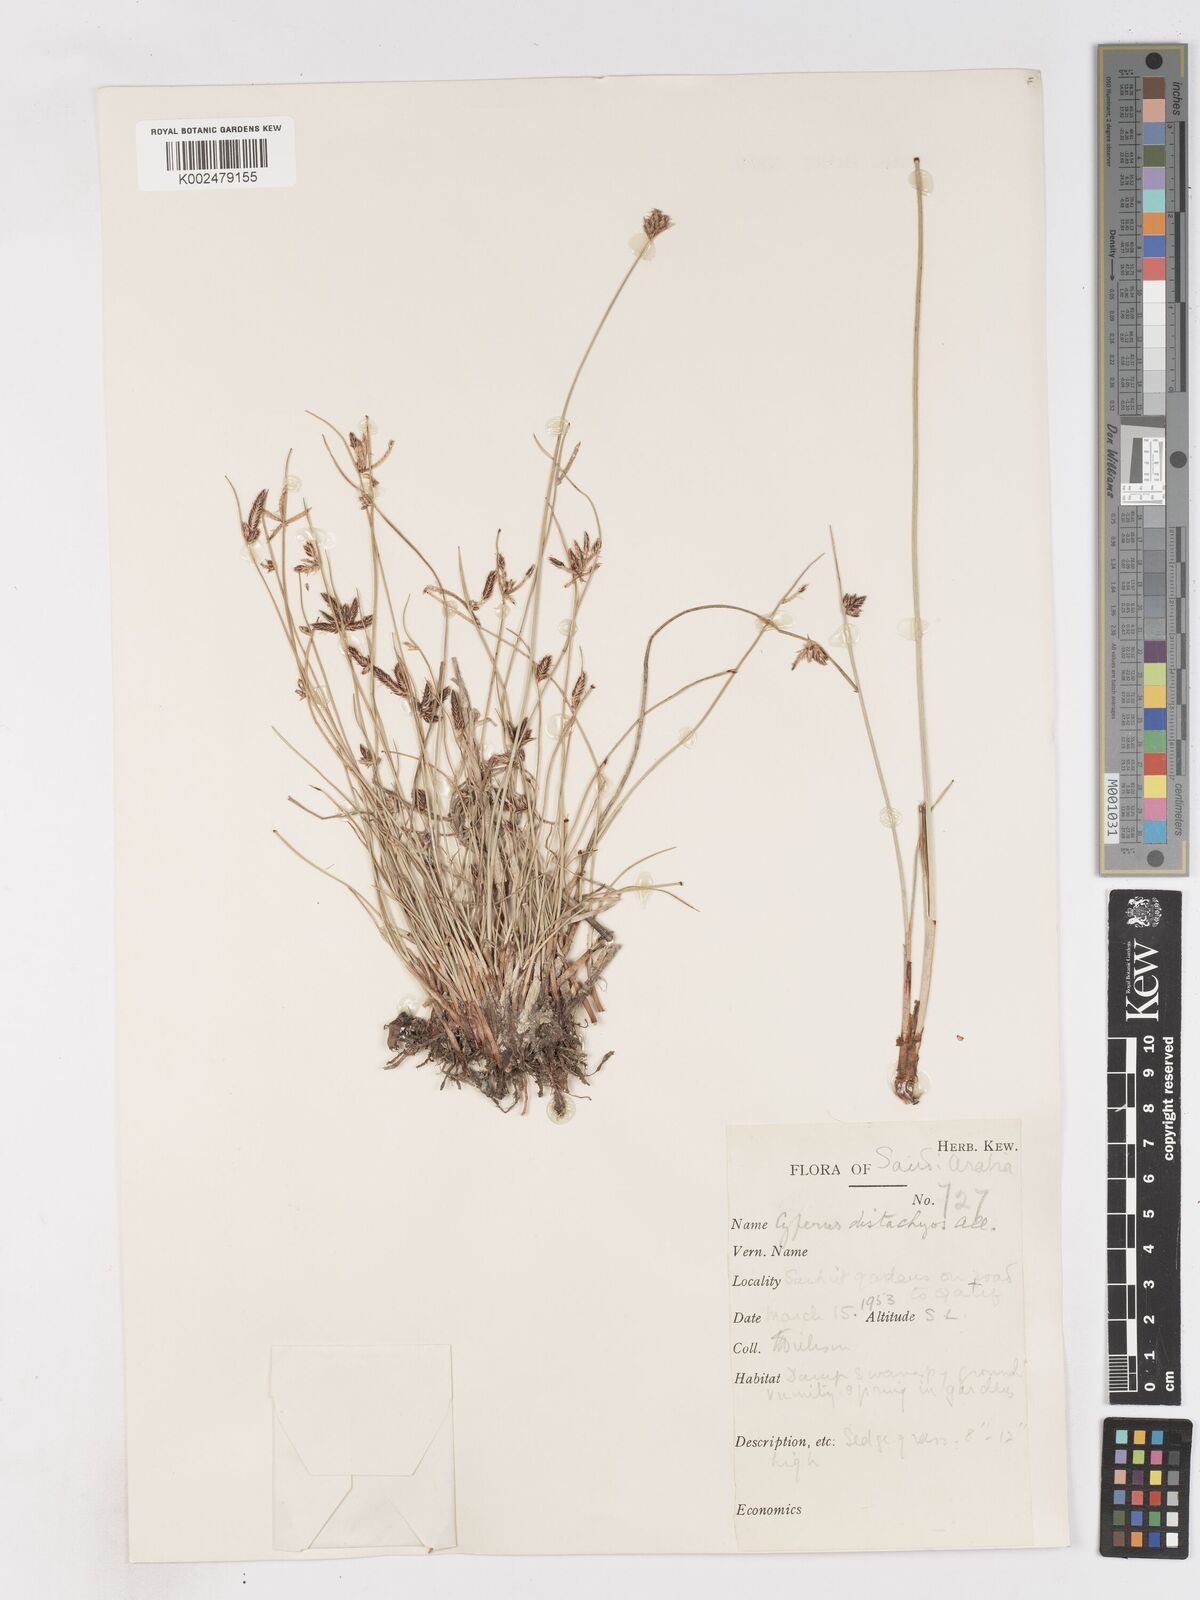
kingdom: Plantae
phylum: Tracheophyta
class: Liliopsida
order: Poales
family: Cyperaceae
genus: Cyperus
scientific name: Cyperus laevigatus
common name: Smooth flat sedge
